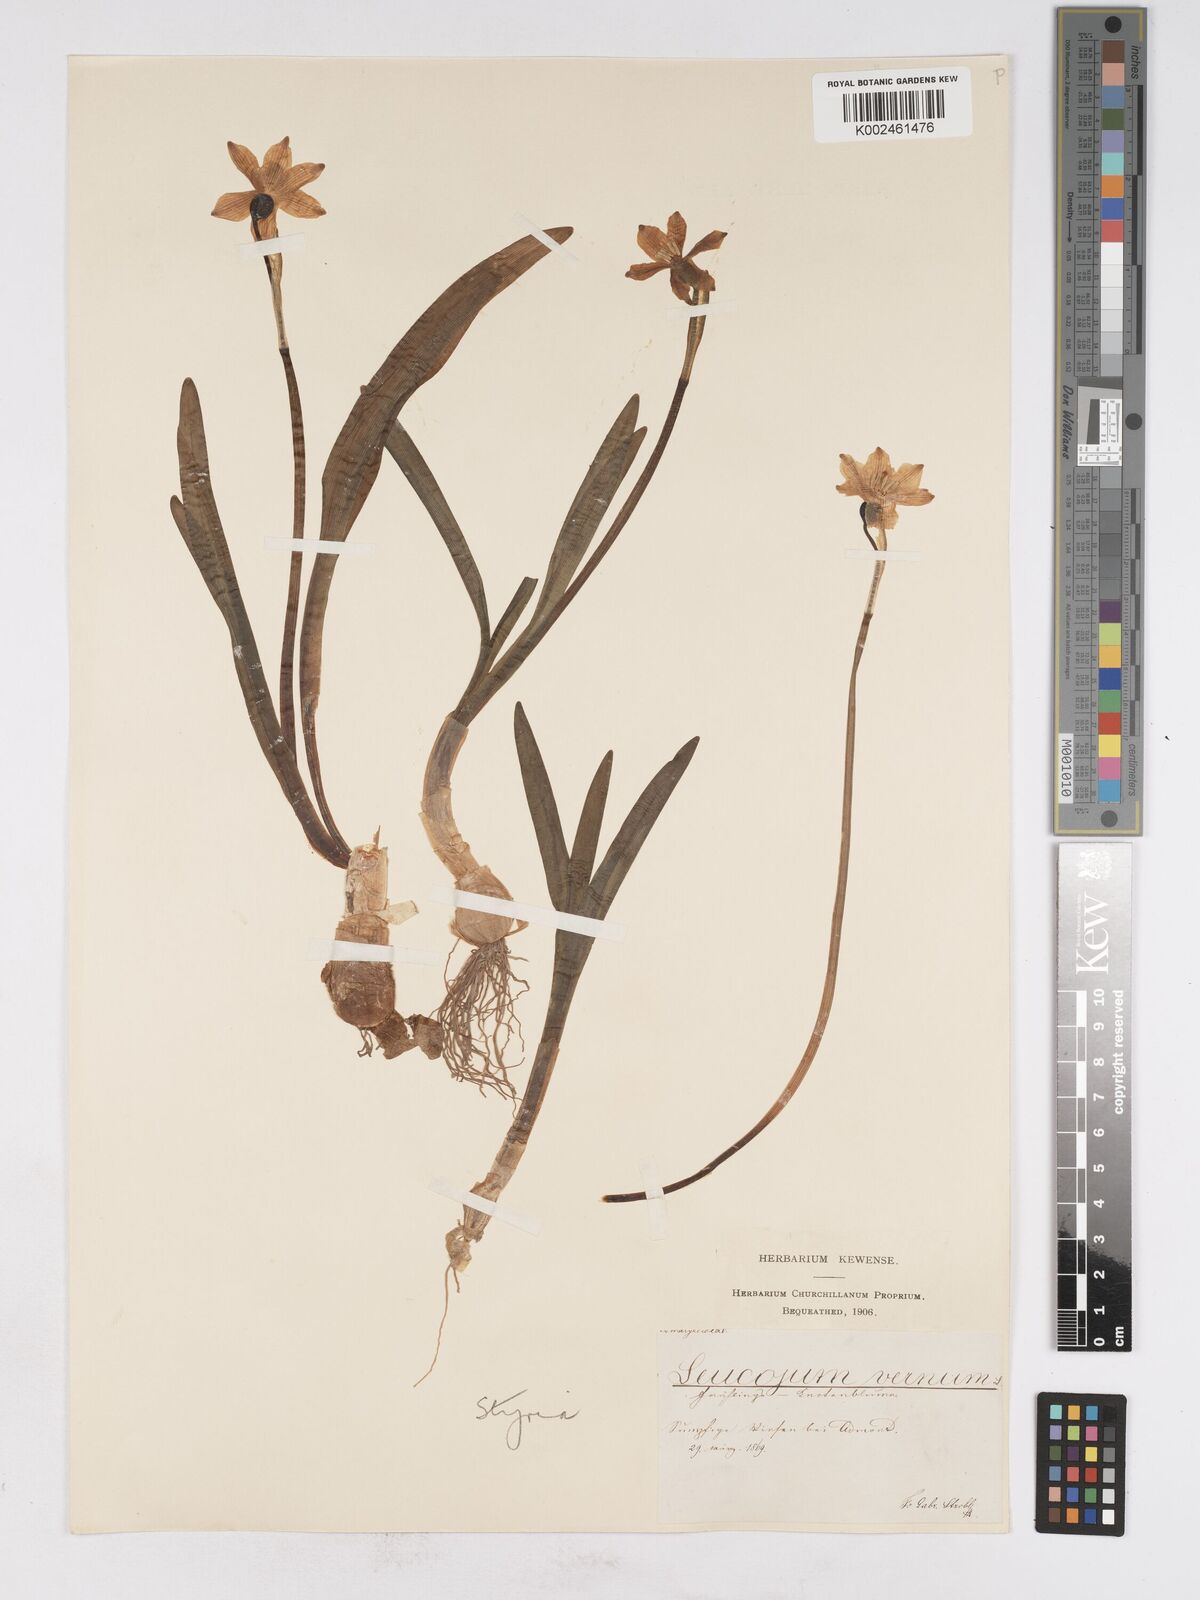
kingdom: Plantae
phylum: Tracheophyta
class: Liliopsida
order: Asparagales
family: Amaryllidaceae
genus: Leucojum
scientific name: Leucojum vernum
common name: Spring snowflake
